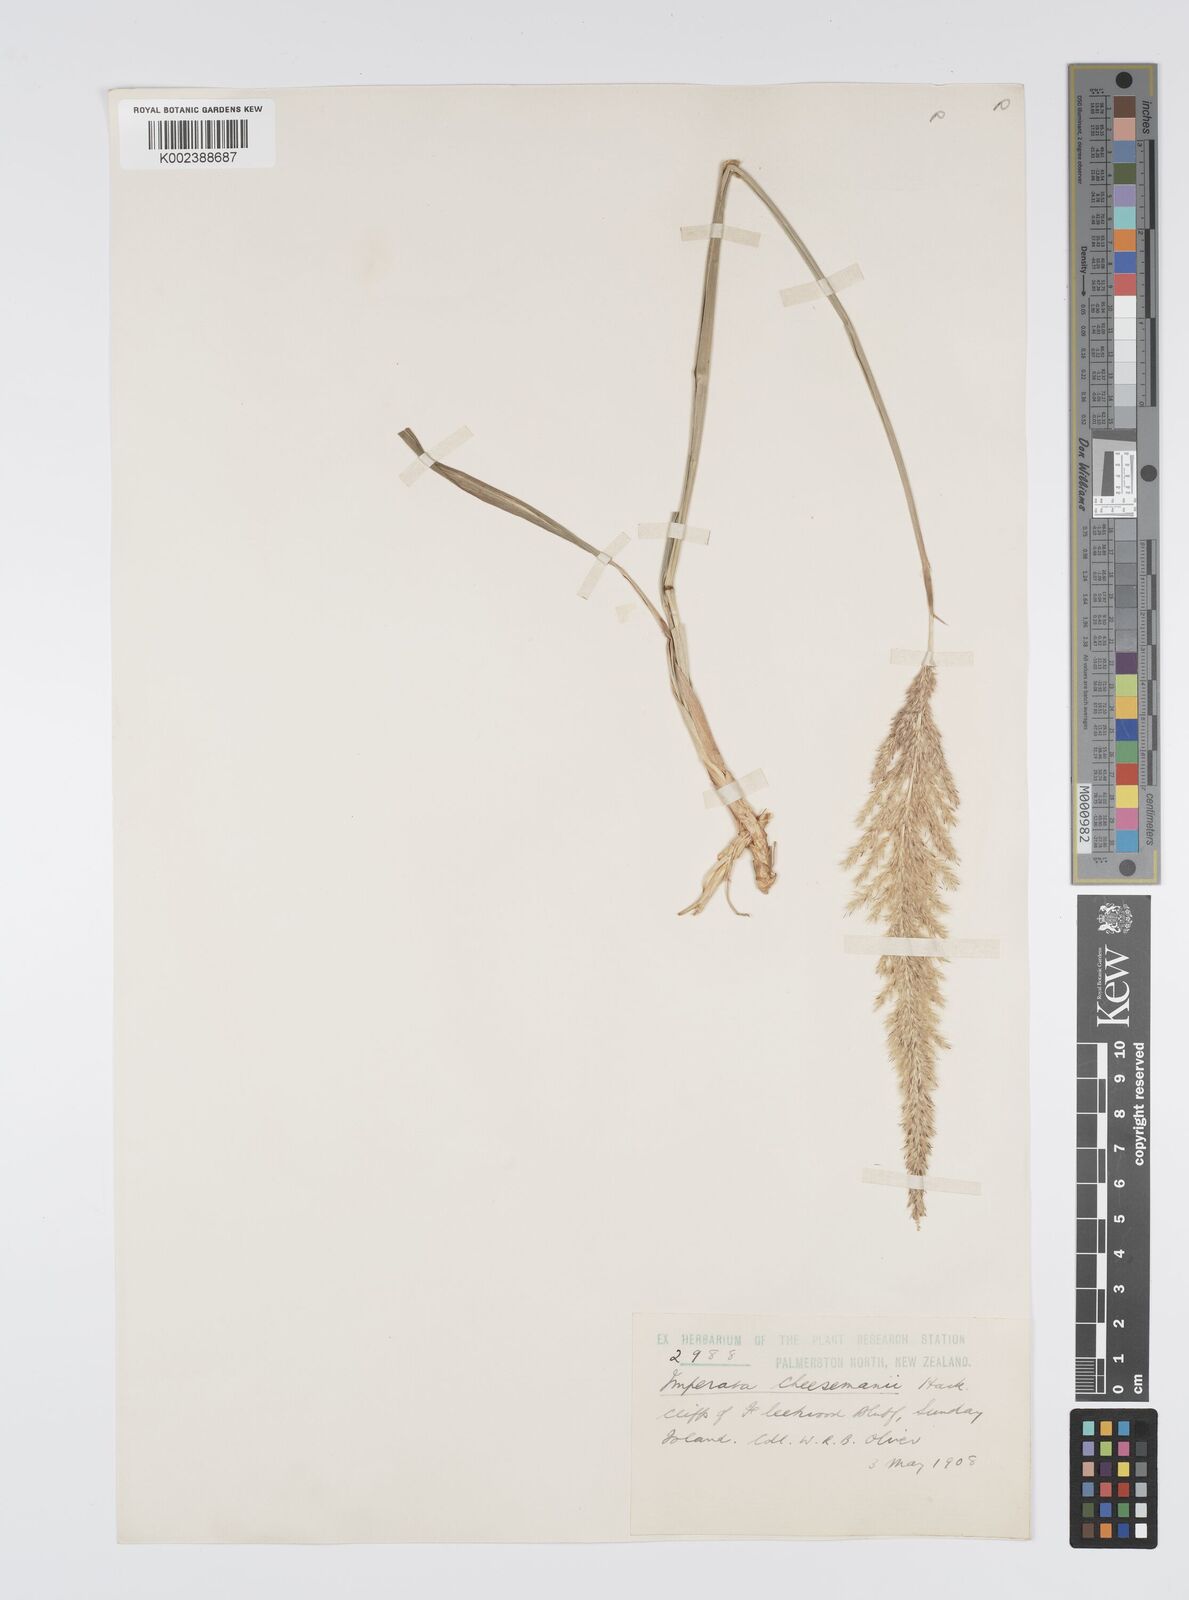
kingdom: Plantae
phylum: Tracheophyta
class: Liliopsida
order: Poales
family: Poaceae
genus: Imperata
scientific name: Imperata cheesemanii
